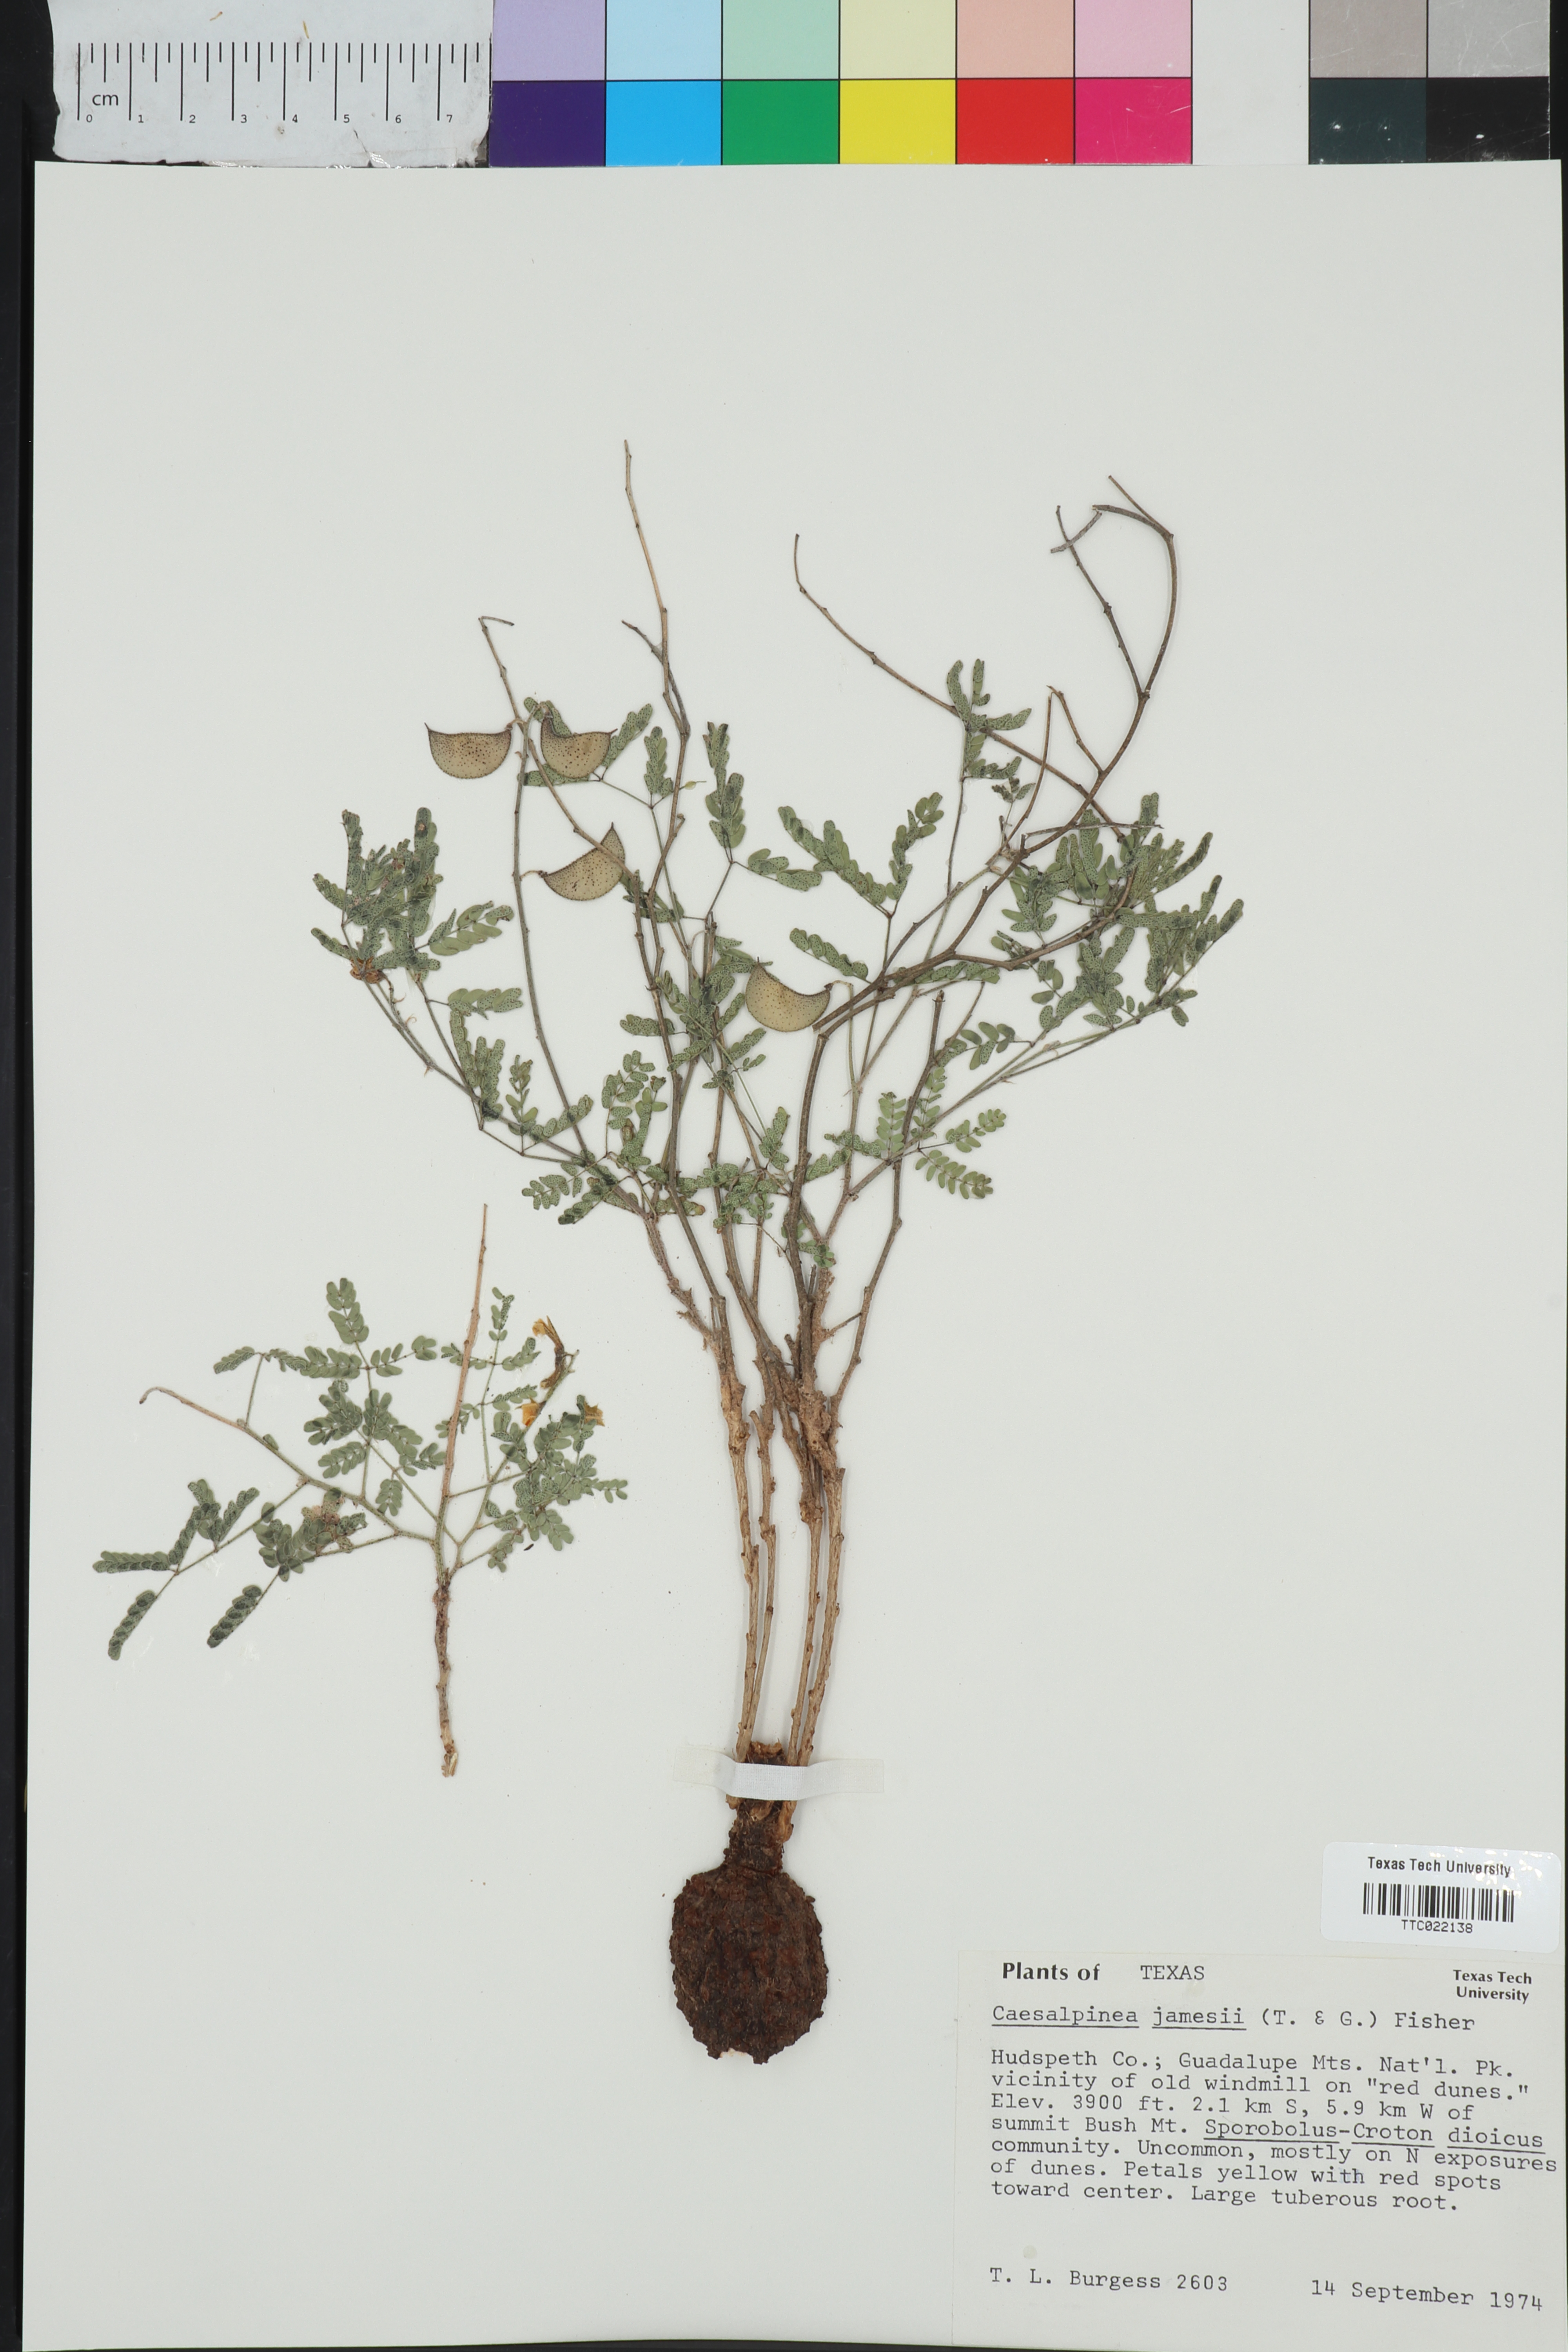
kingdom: Plantae
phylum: Tracheophyta
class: Magnoliopsida
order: Fabales
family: Fabaceae
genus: Pomaria
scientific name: Pomaria jamesii
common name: James' caesalpinia
